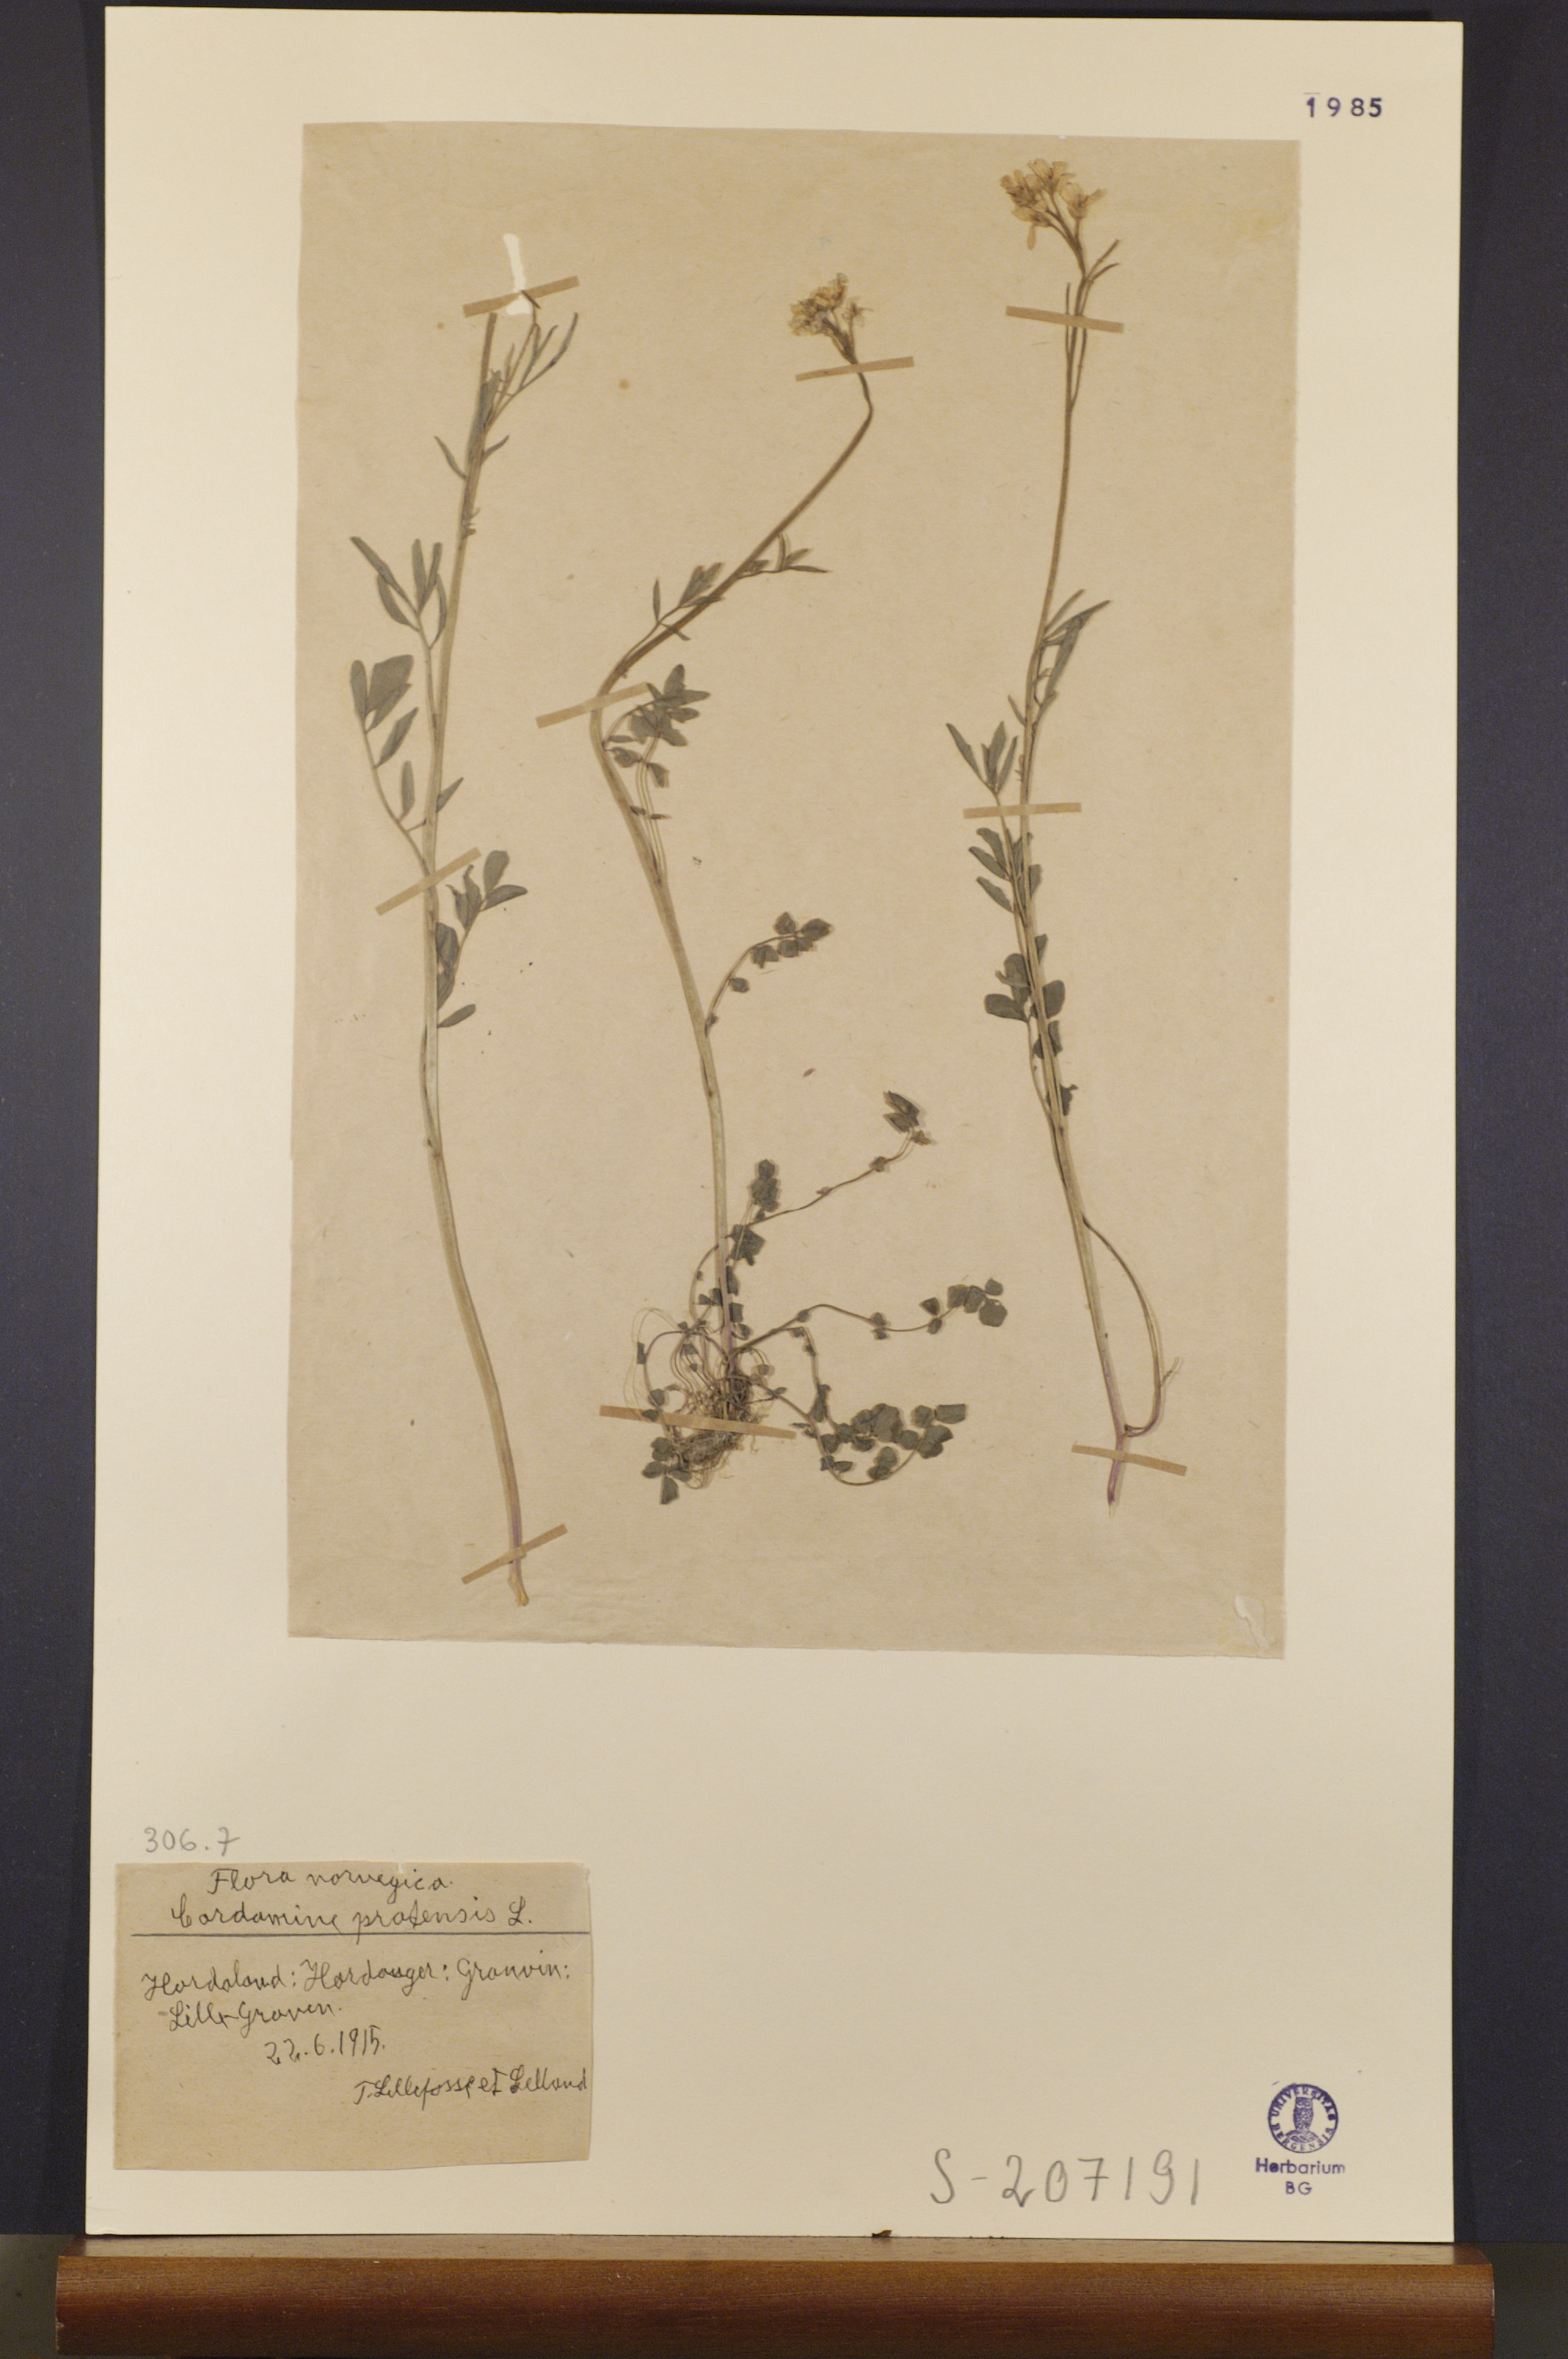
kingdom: Plantae
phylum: Tracheophyta
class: Magnoliopsida
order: Brassicales
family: Brassicaceae
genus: Cardamine
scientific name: Cardamine pratensis
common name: Cuckoo flower
